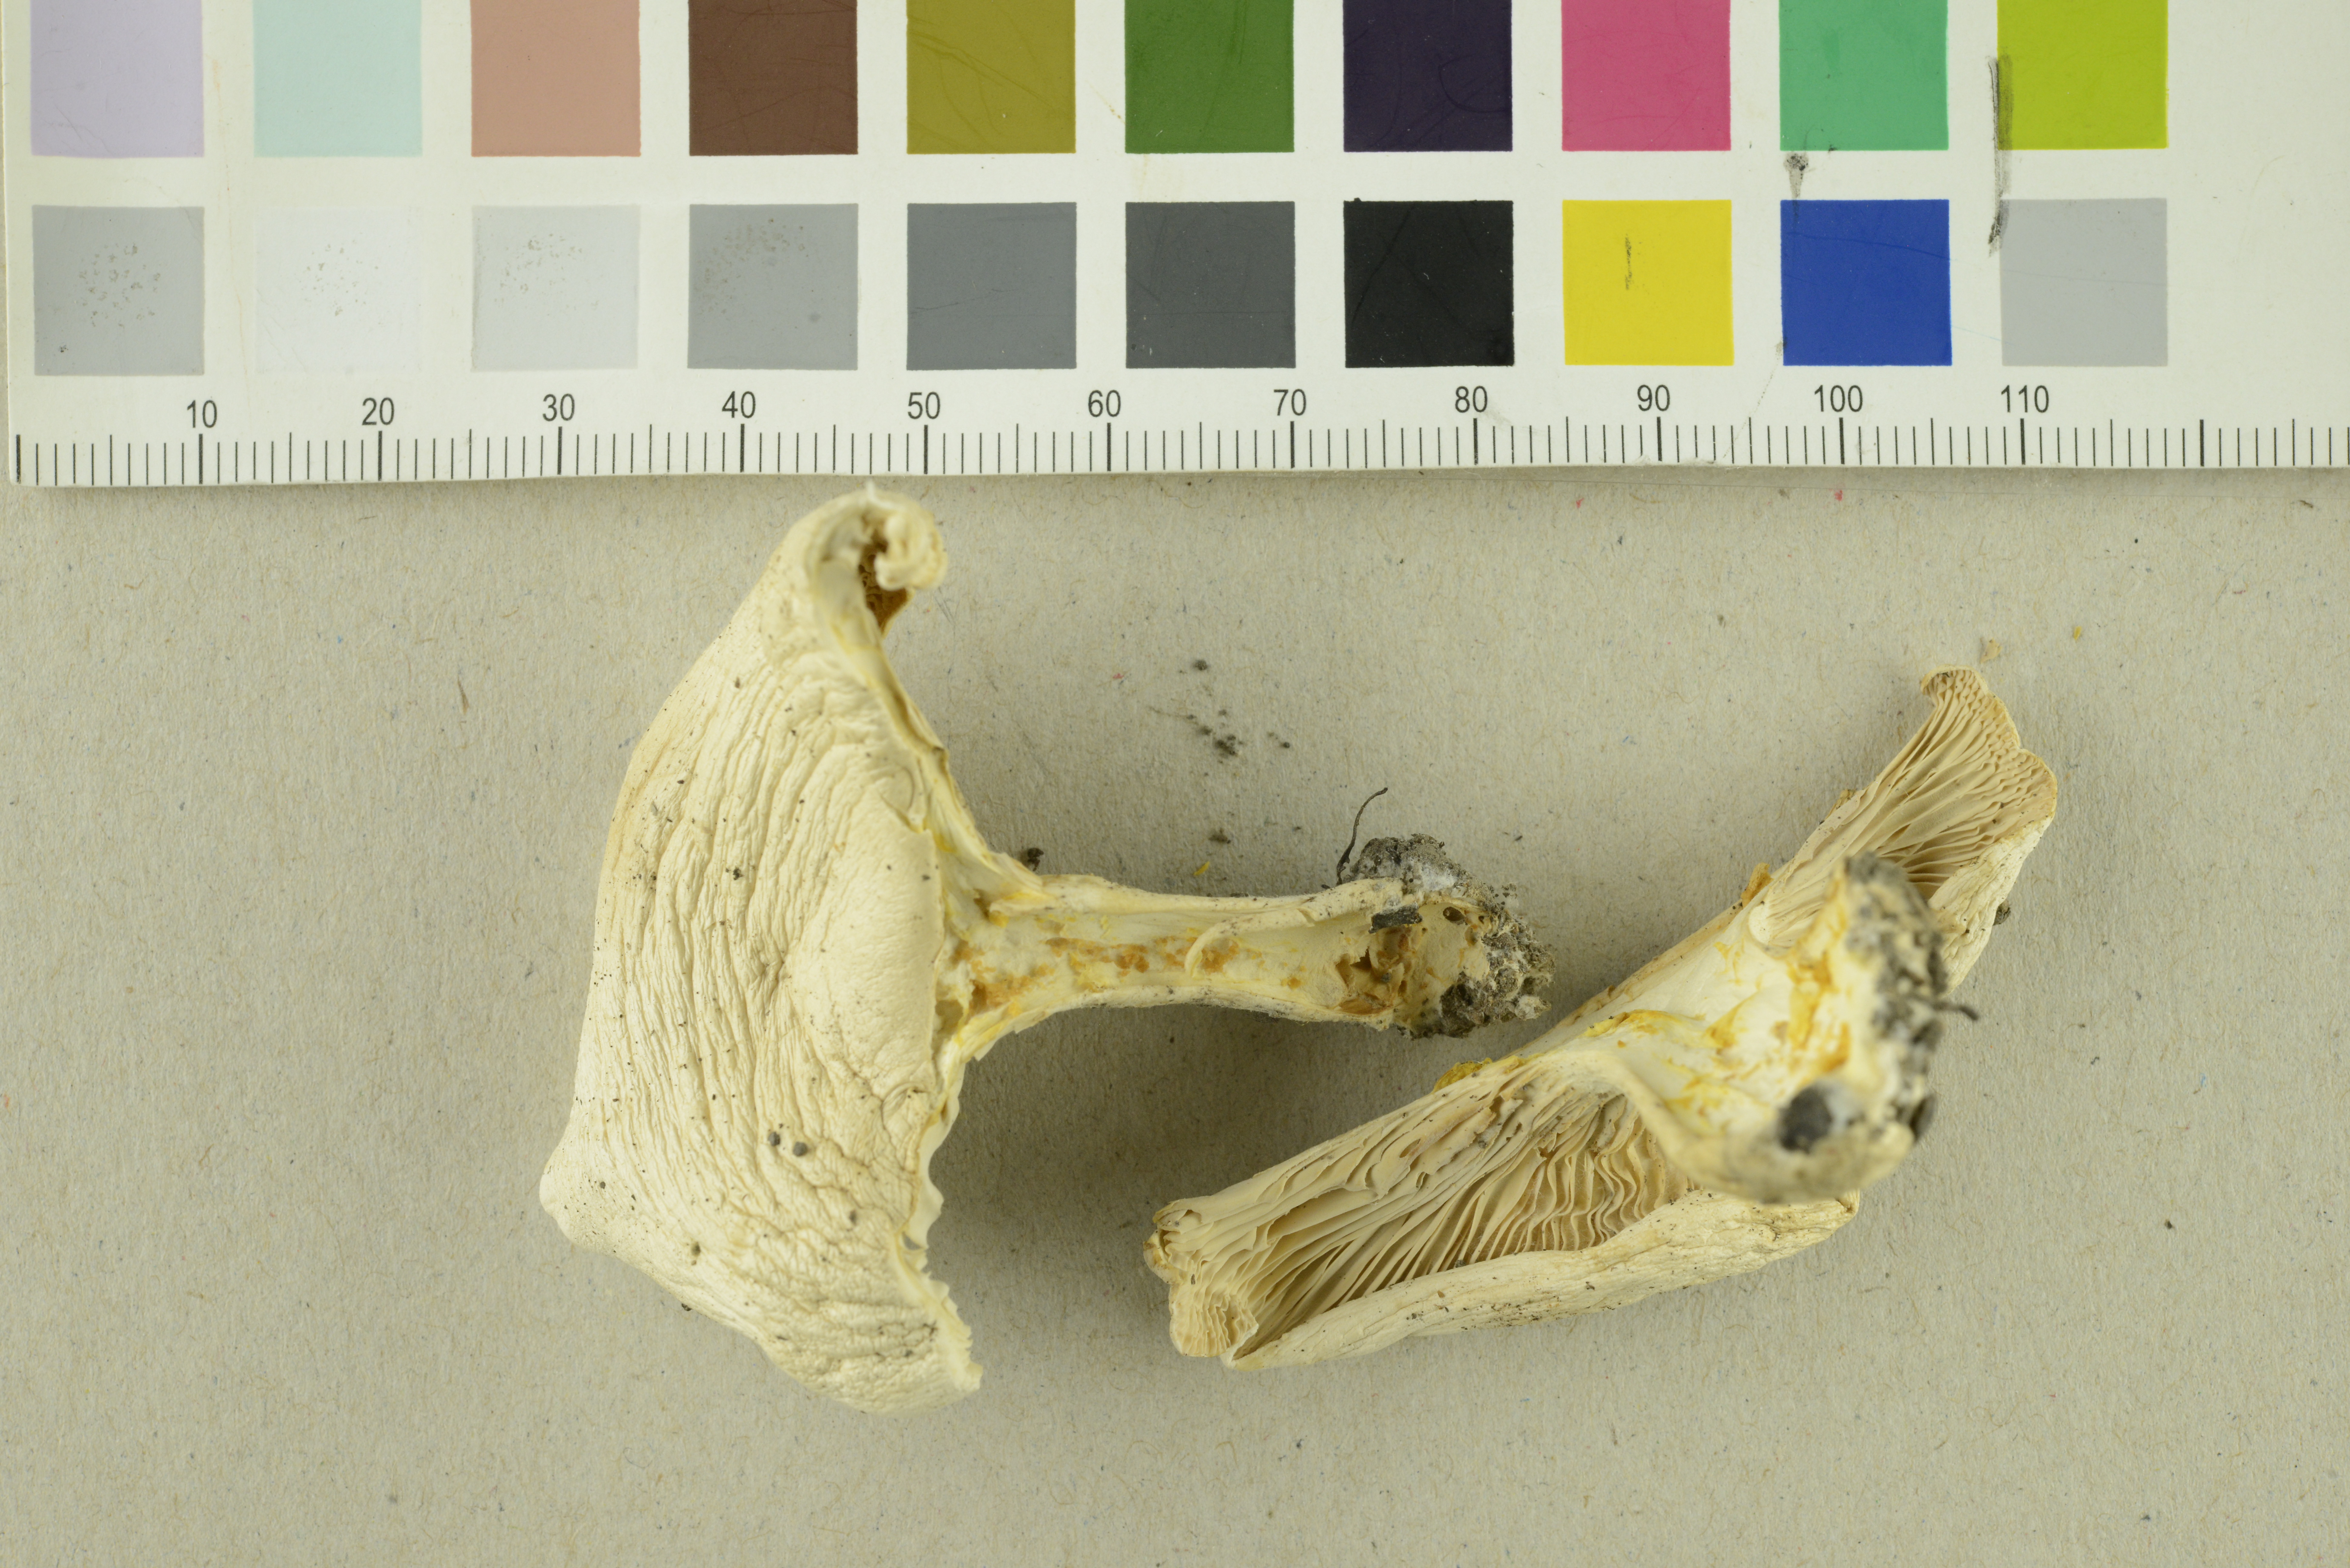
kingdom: Fungi
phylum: Basidiomycota
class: Agaricomycetes
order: Agaricales
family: Tricholomataceae
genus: Pseudoclitopilus
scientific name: Pseudoclitopilus rhodoleucus
